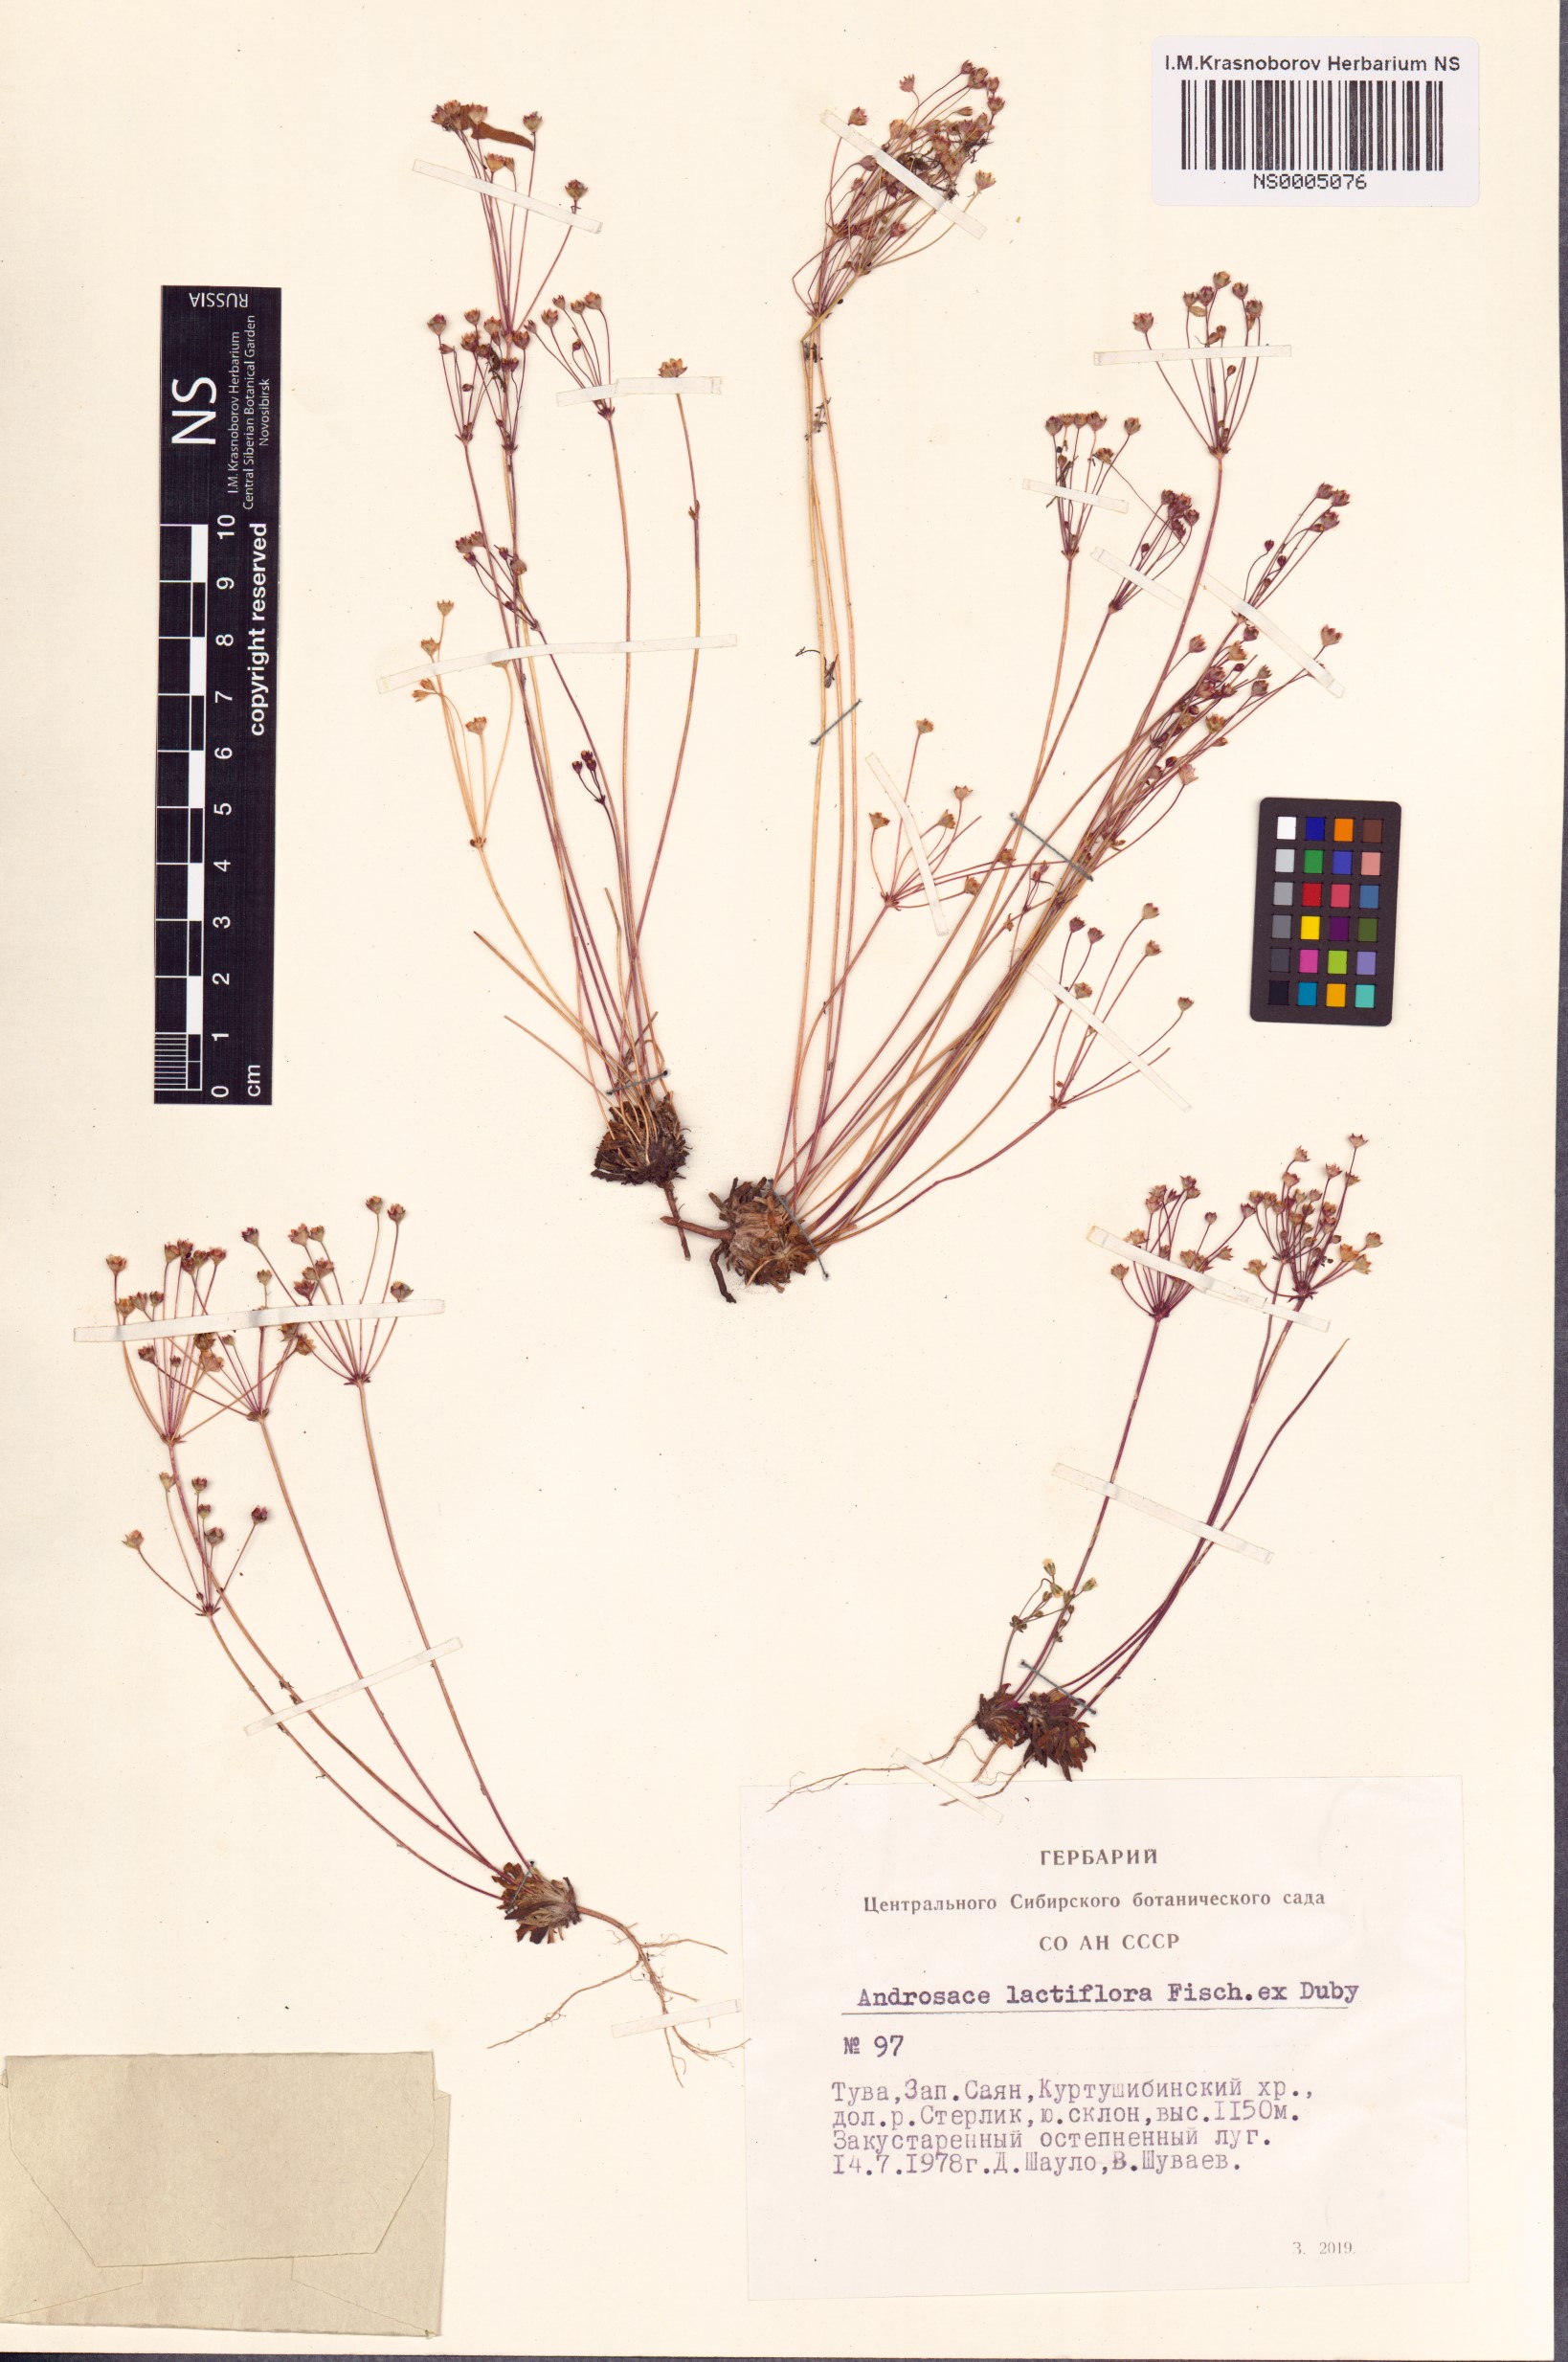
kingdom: Plantae
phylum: Tracheophyta
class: Magnoliopsida
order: Ericales
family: Primulaceae
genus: Androsace
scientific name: Androsace lactiflora
